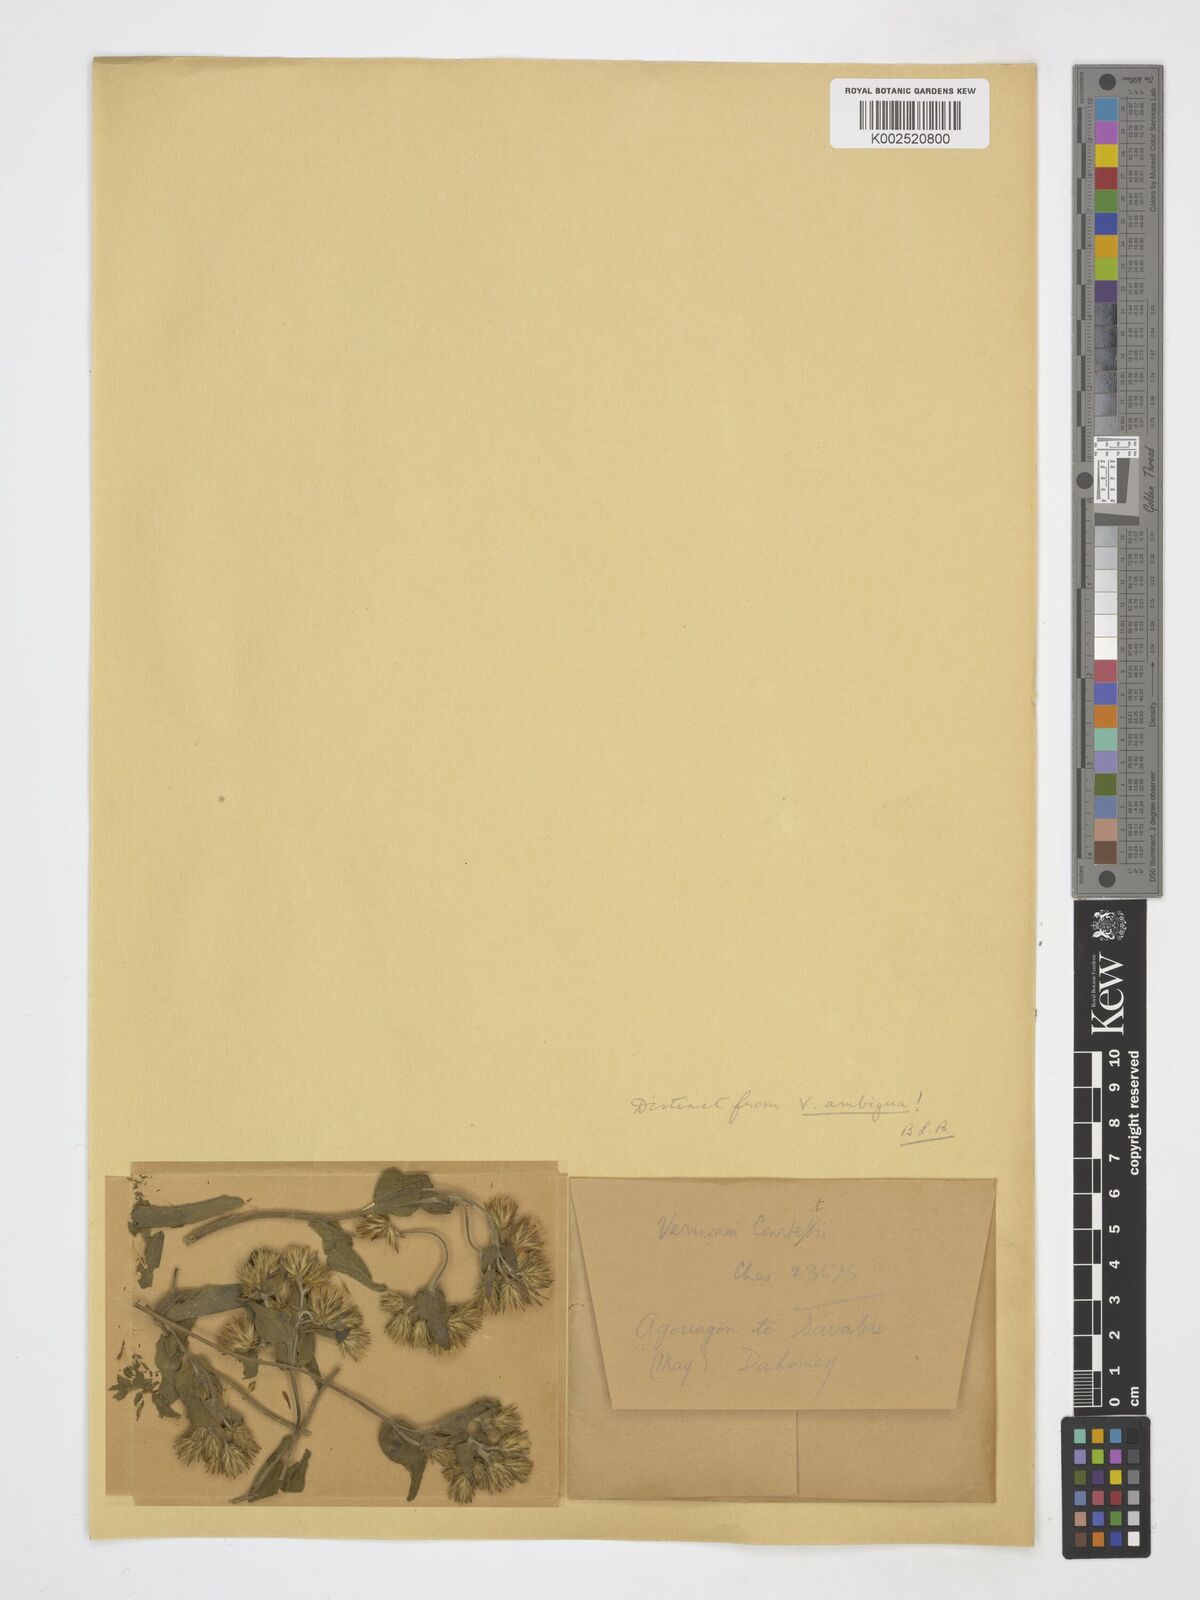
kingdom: Plantae
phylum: Tracheophyta
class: Magnoliopsida
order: Asterales
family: Asteraceae
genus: Vernoniastrum
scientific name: Vernoniastrum ambiguum
